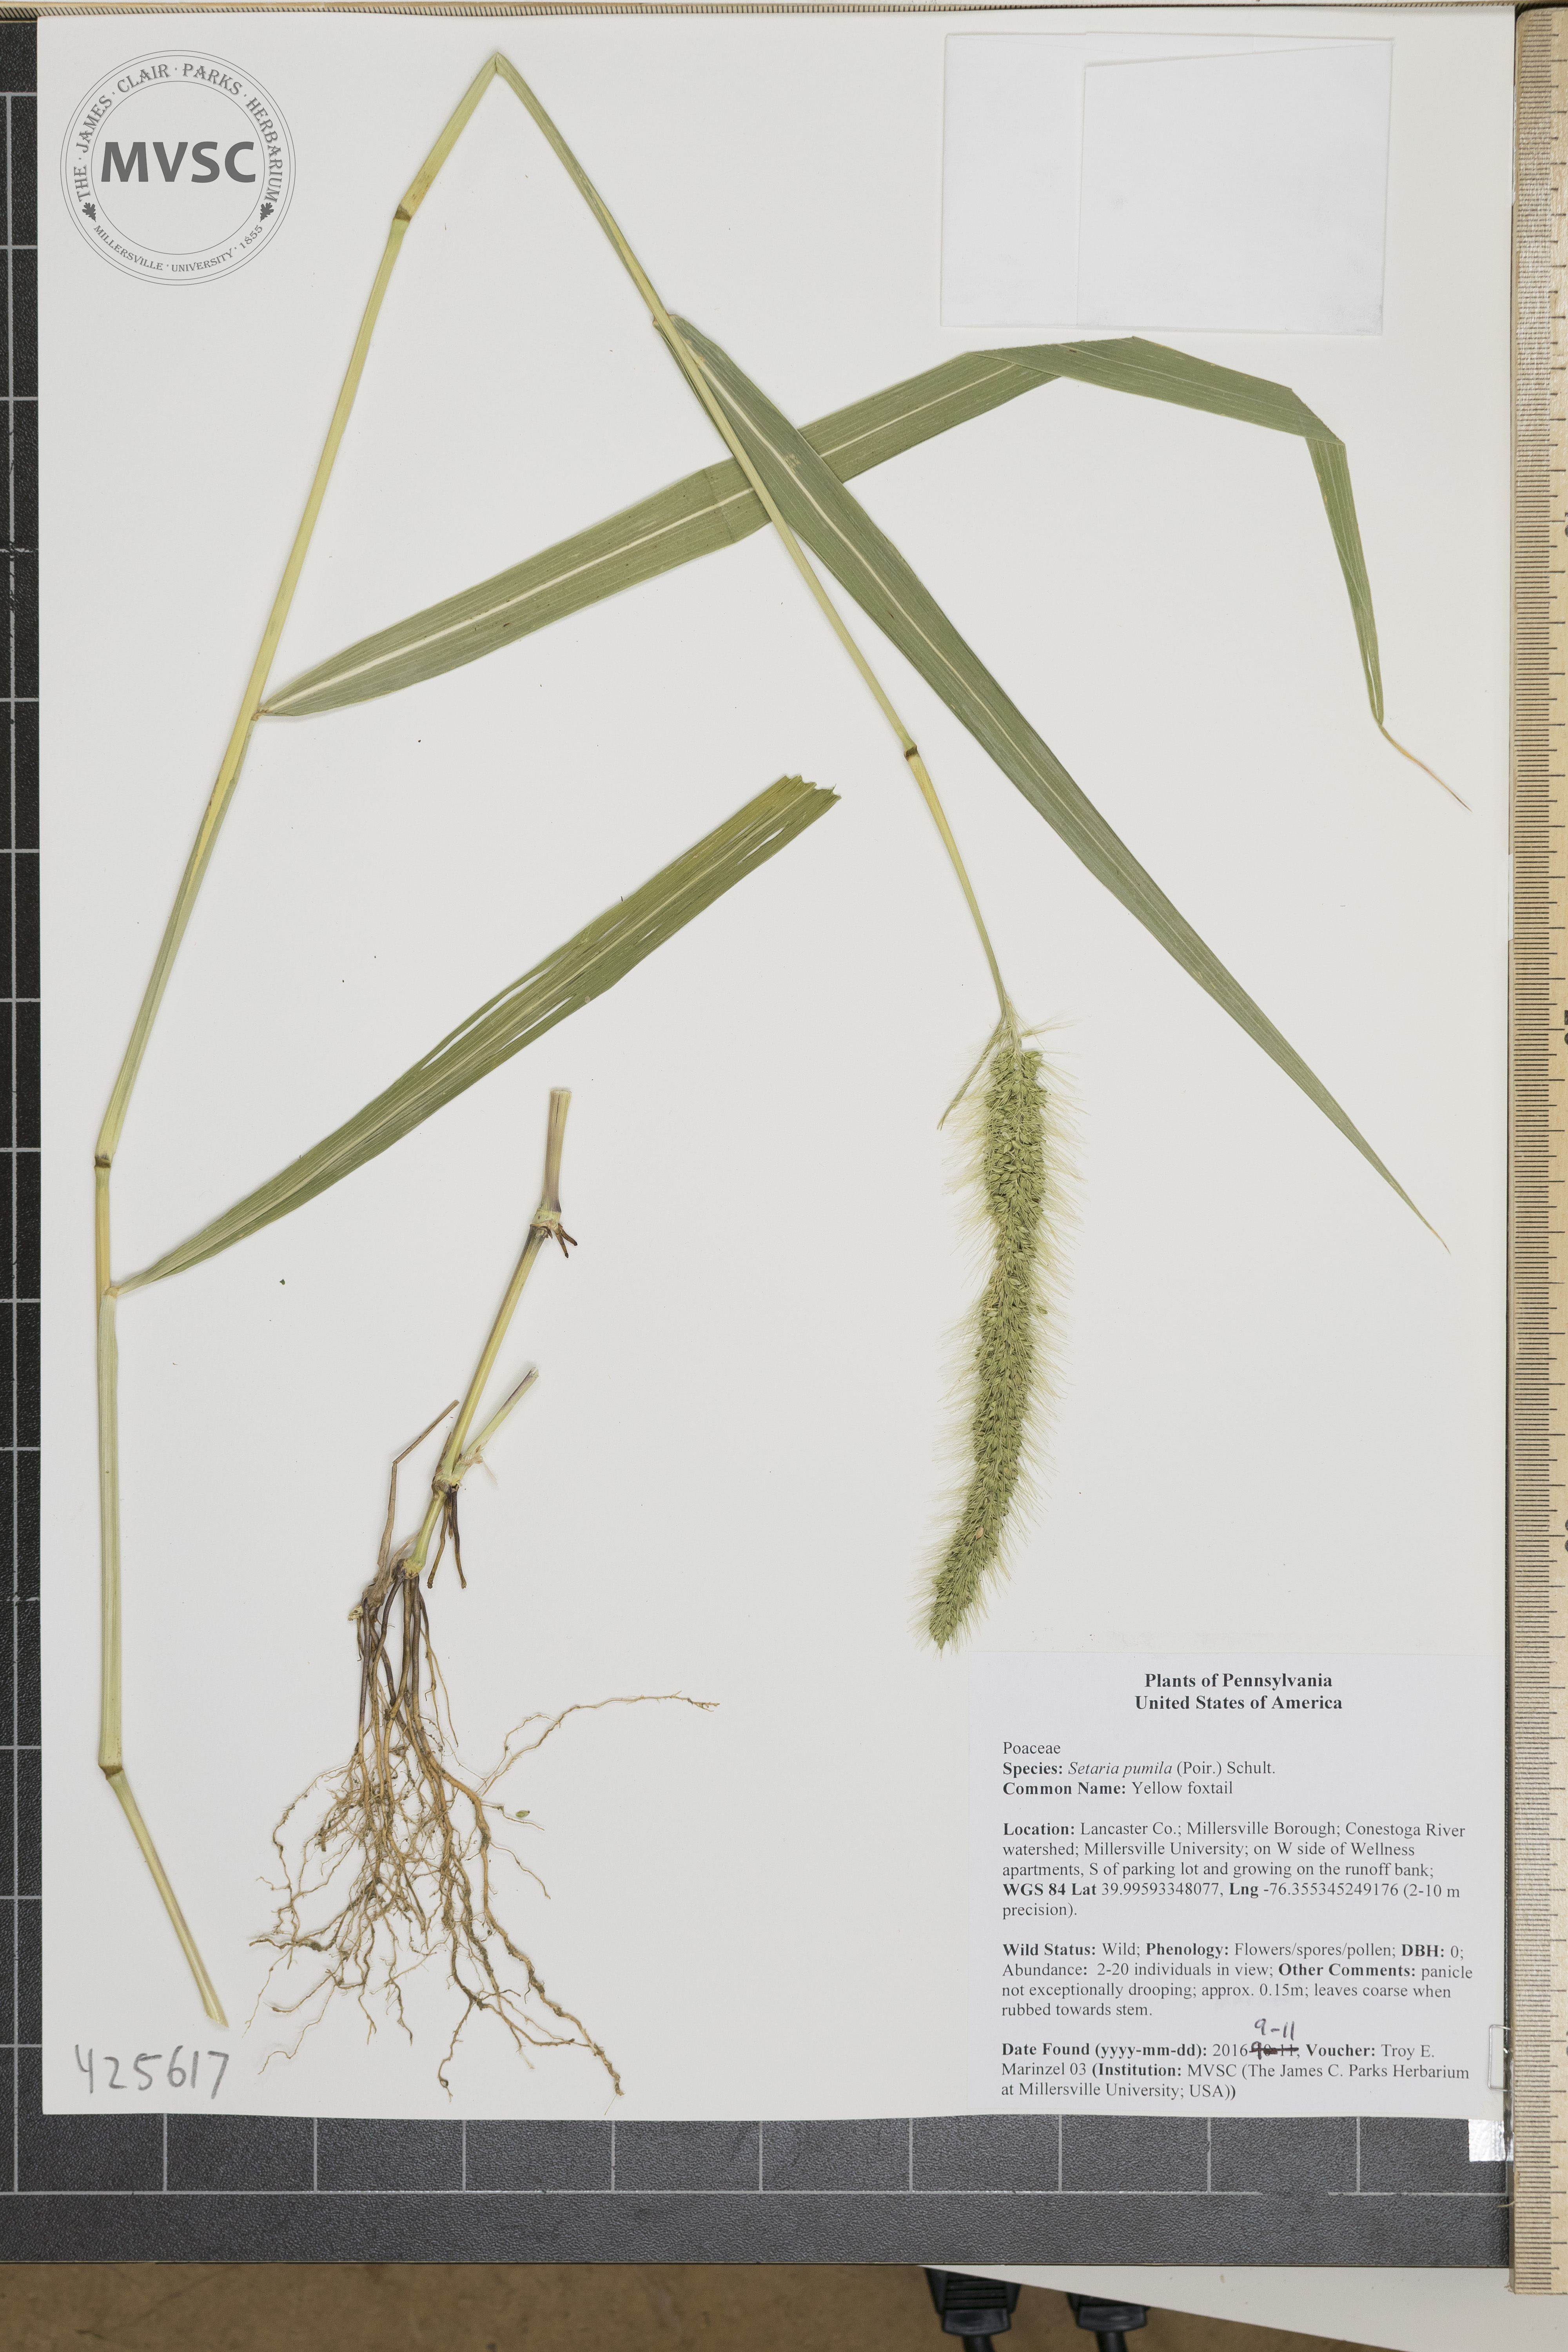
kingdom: Plantae
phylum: Tracheophyta
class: Liliopsida
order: Poales
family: Poaceae
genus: Setaria
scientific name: Setaria pumila
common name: Yellow foxtail
